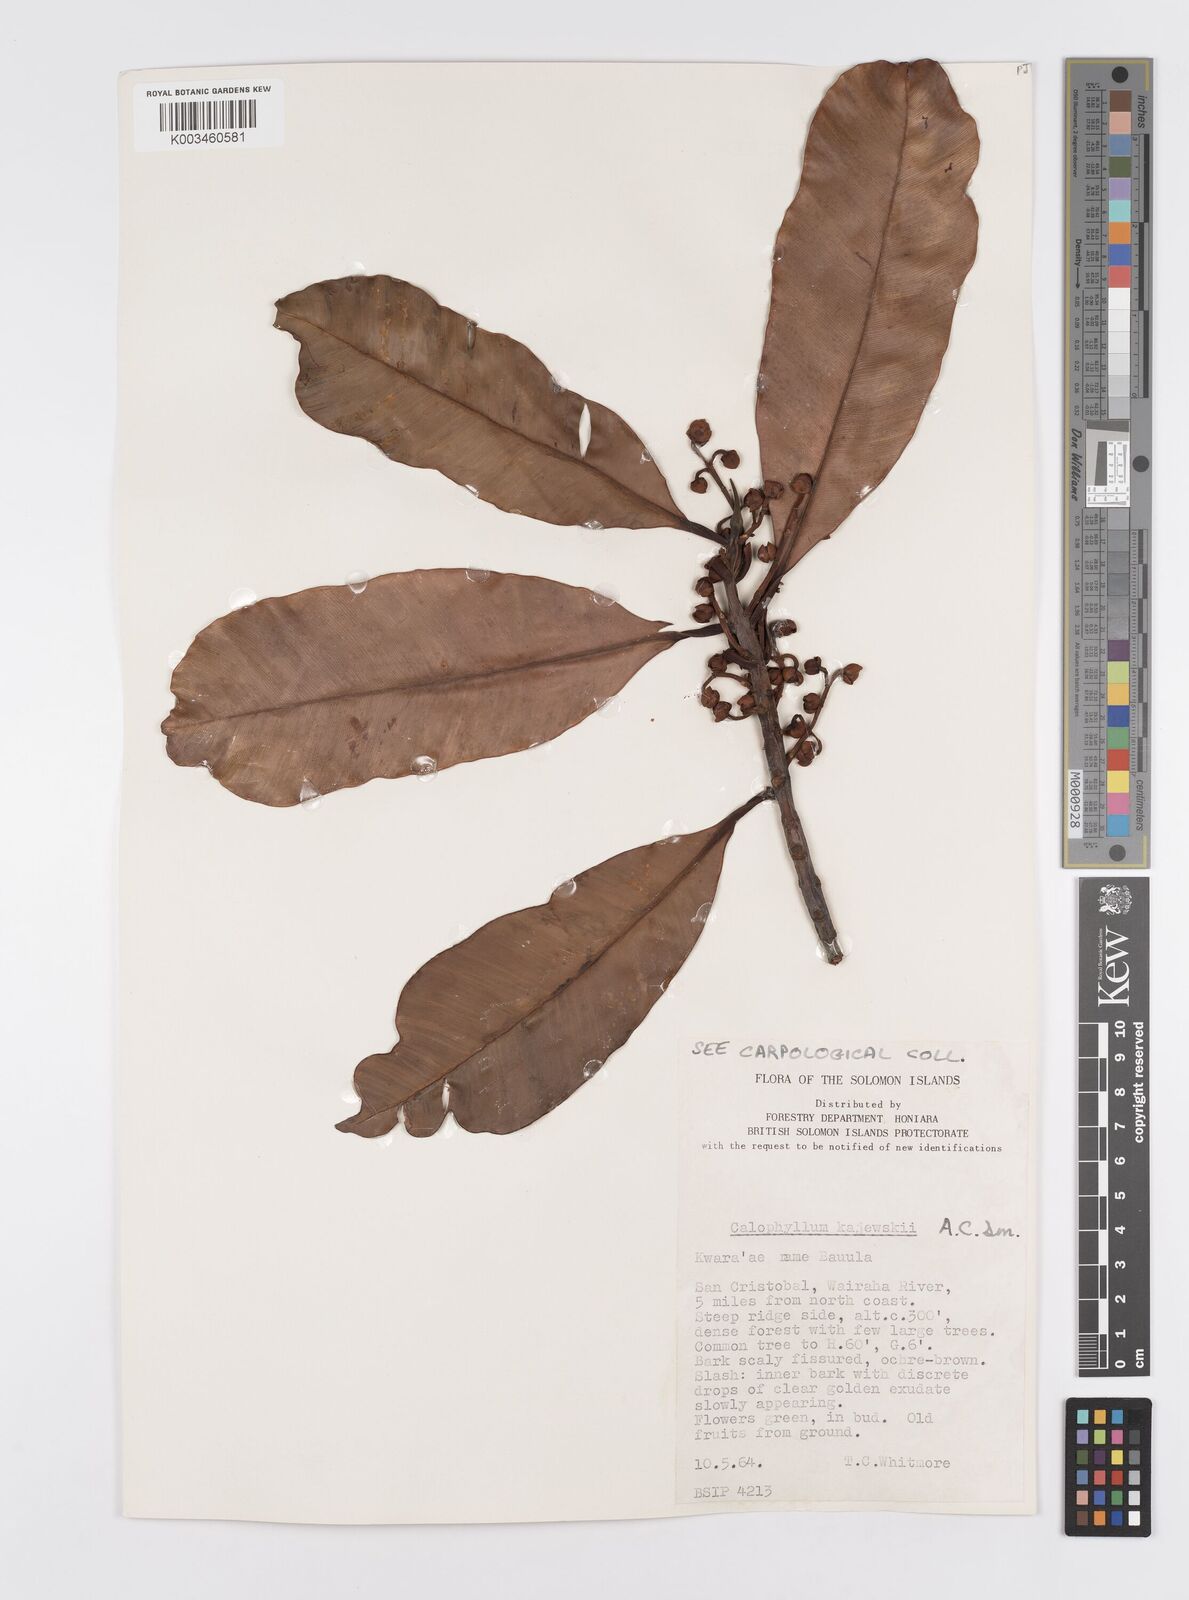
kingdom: Plantae
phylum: Tracheophyta
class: Magnoliopsida
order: Malpighiales
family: Calophyllaceae
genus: Calophyllum
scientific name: Calophyllum peekelii
